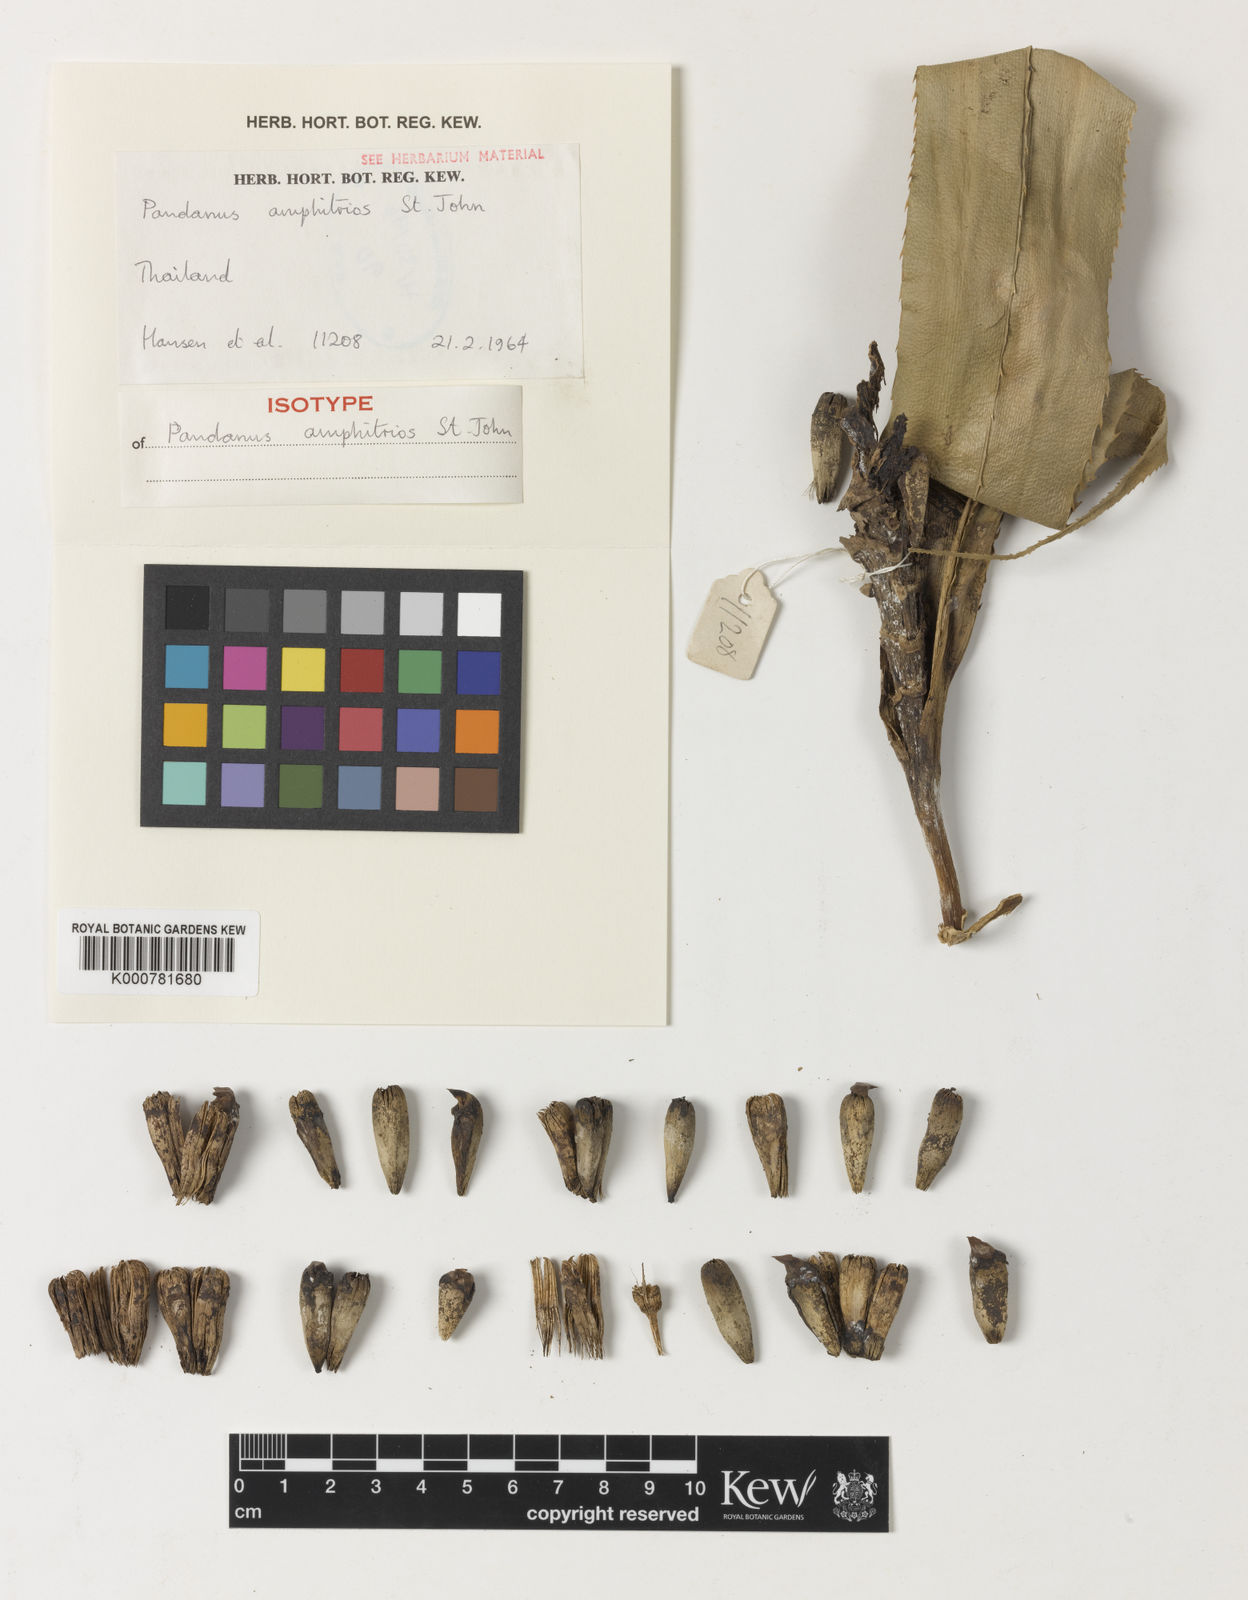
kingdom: Plantae
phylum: Tracheophyta
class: Liliopsida
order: Pandanales
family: Pandanaceae
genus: Pandanus
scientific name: Pandanus
